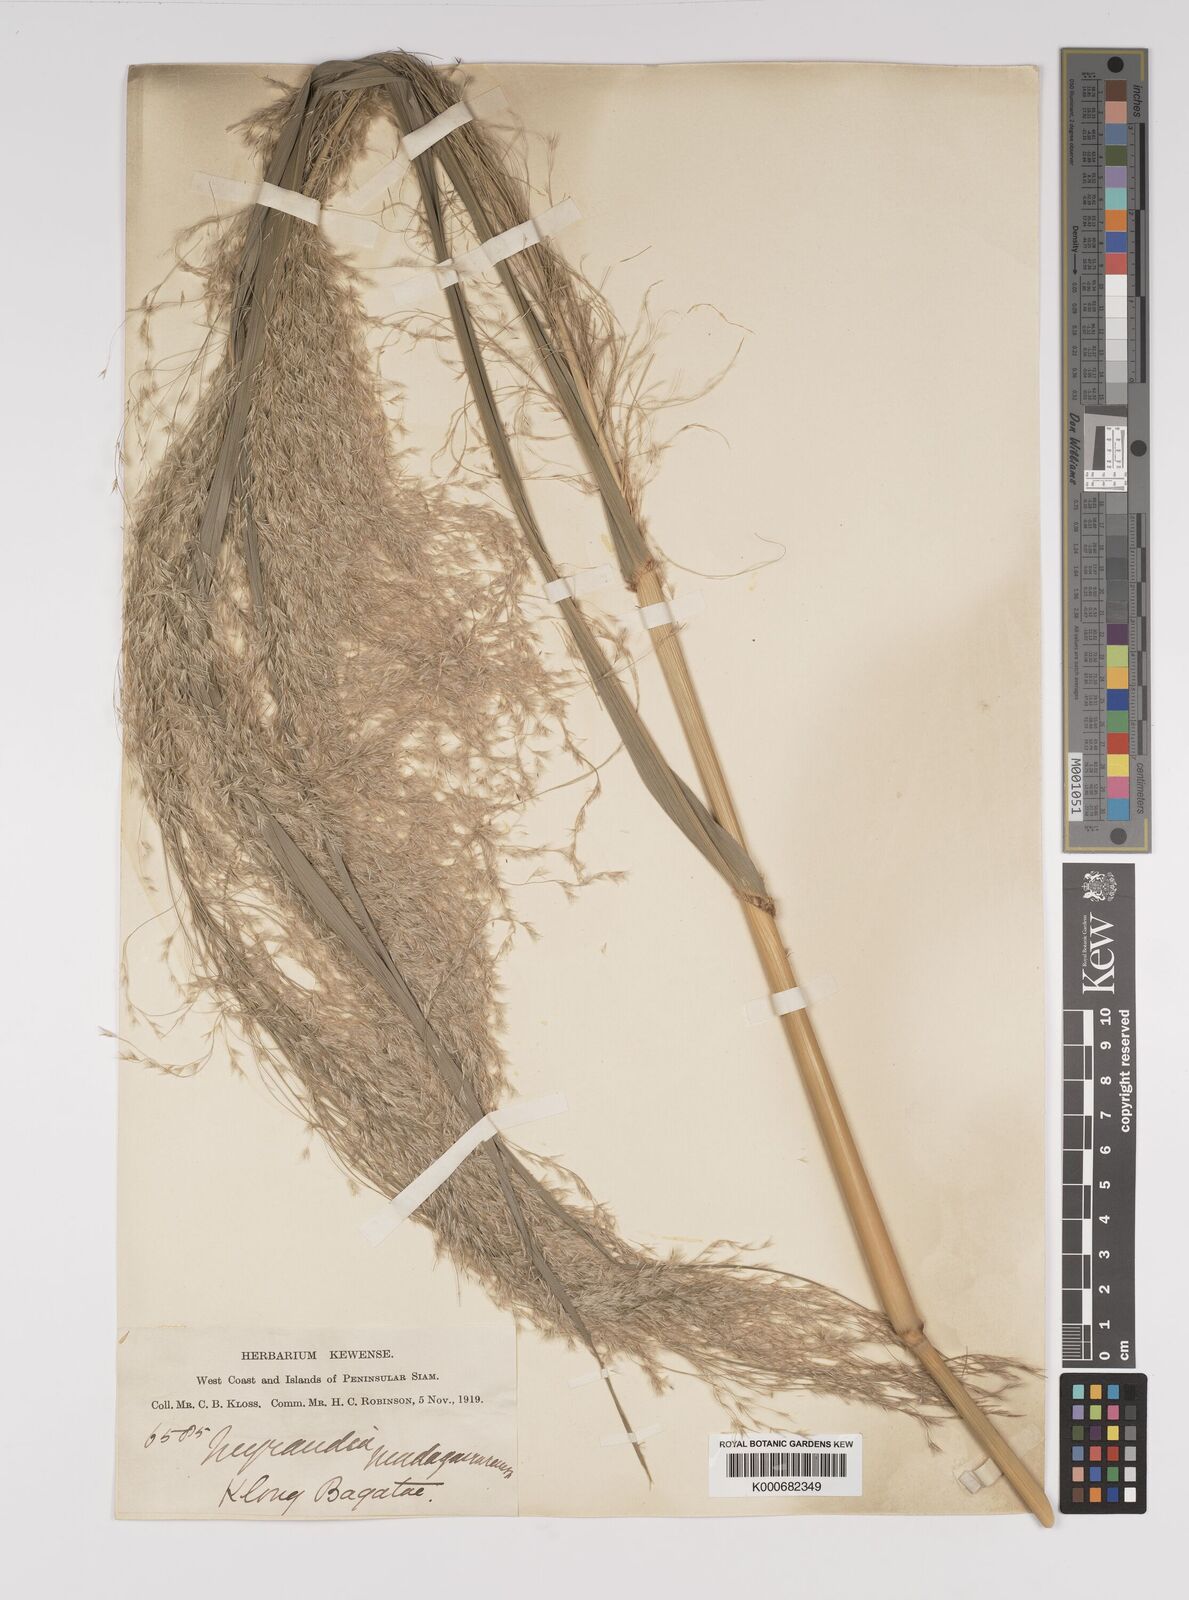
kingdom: Plantae
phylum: Tracheophyta
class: Liliopsida
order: Poales
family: Poaceae
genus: Neyraudia
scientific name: Neyraudia reynaudiana
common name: Silkreed
